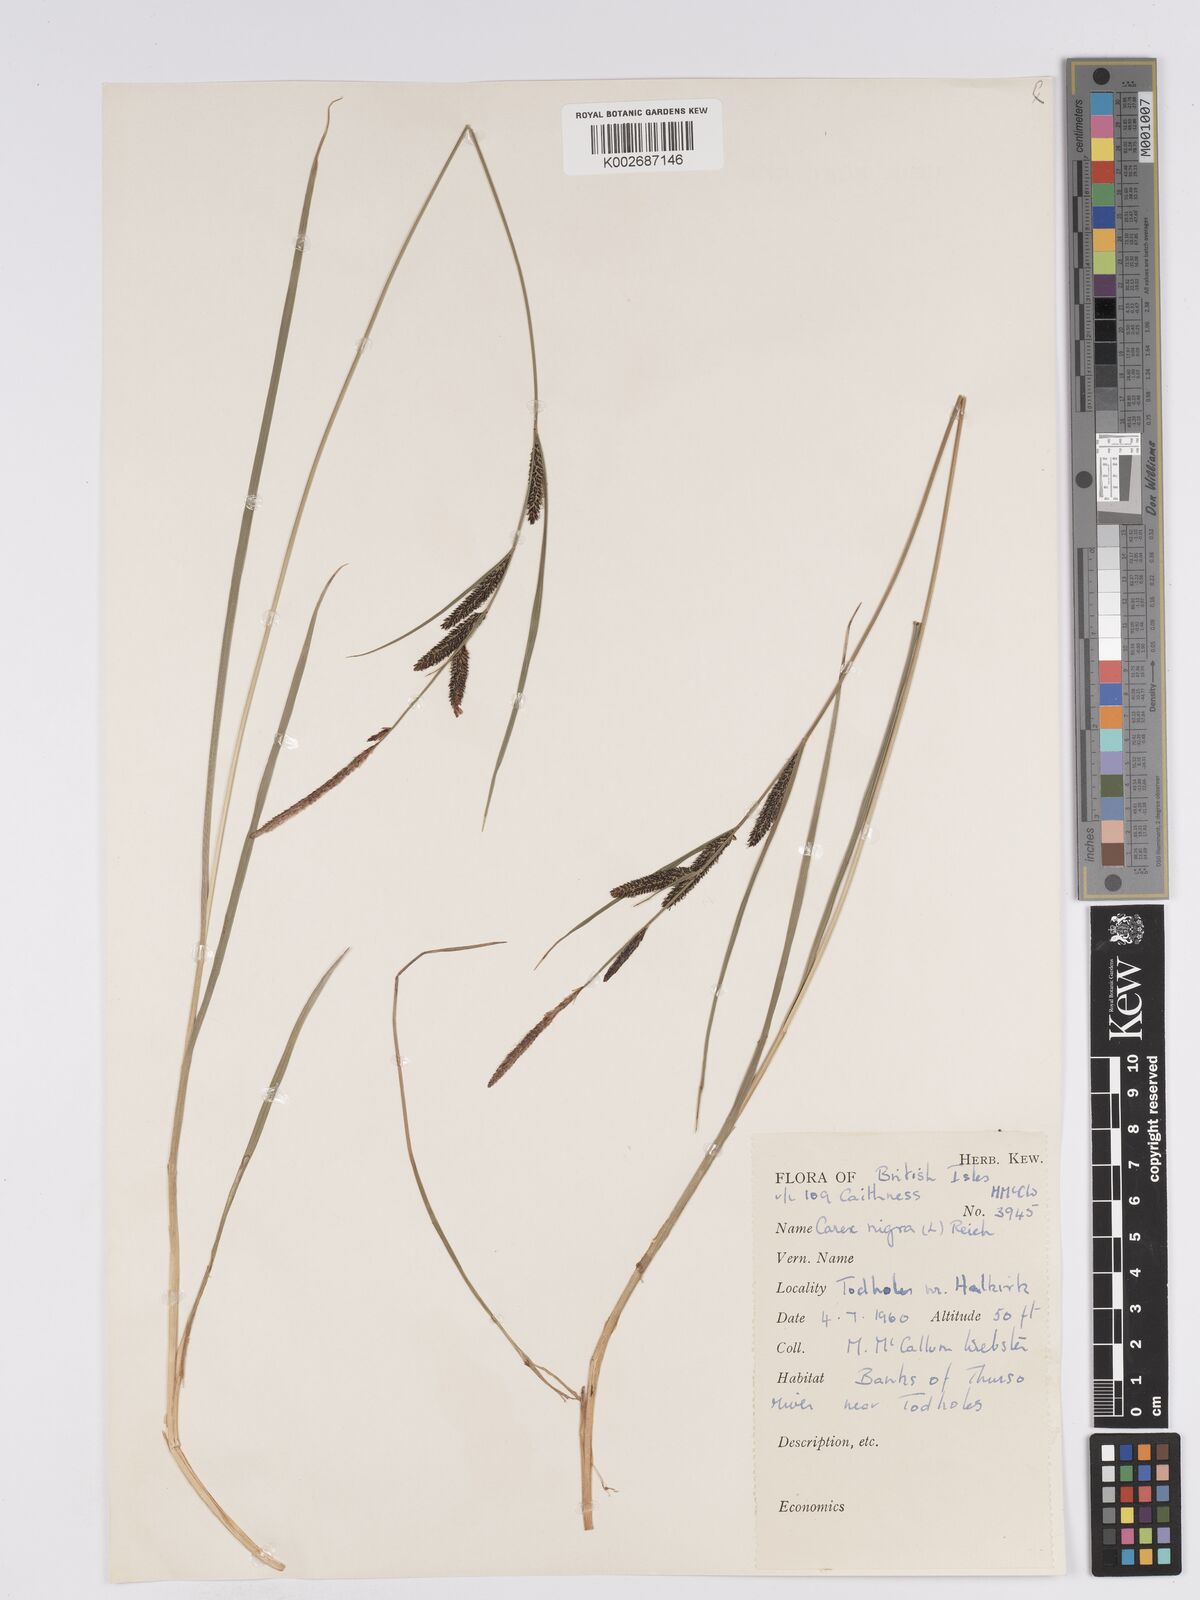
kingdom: Plantae
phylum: Tracheophyta
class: Liliopsida
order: Poales
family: Cyperaceae
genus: Carex
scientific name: Carex nigra
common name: Common sedge
